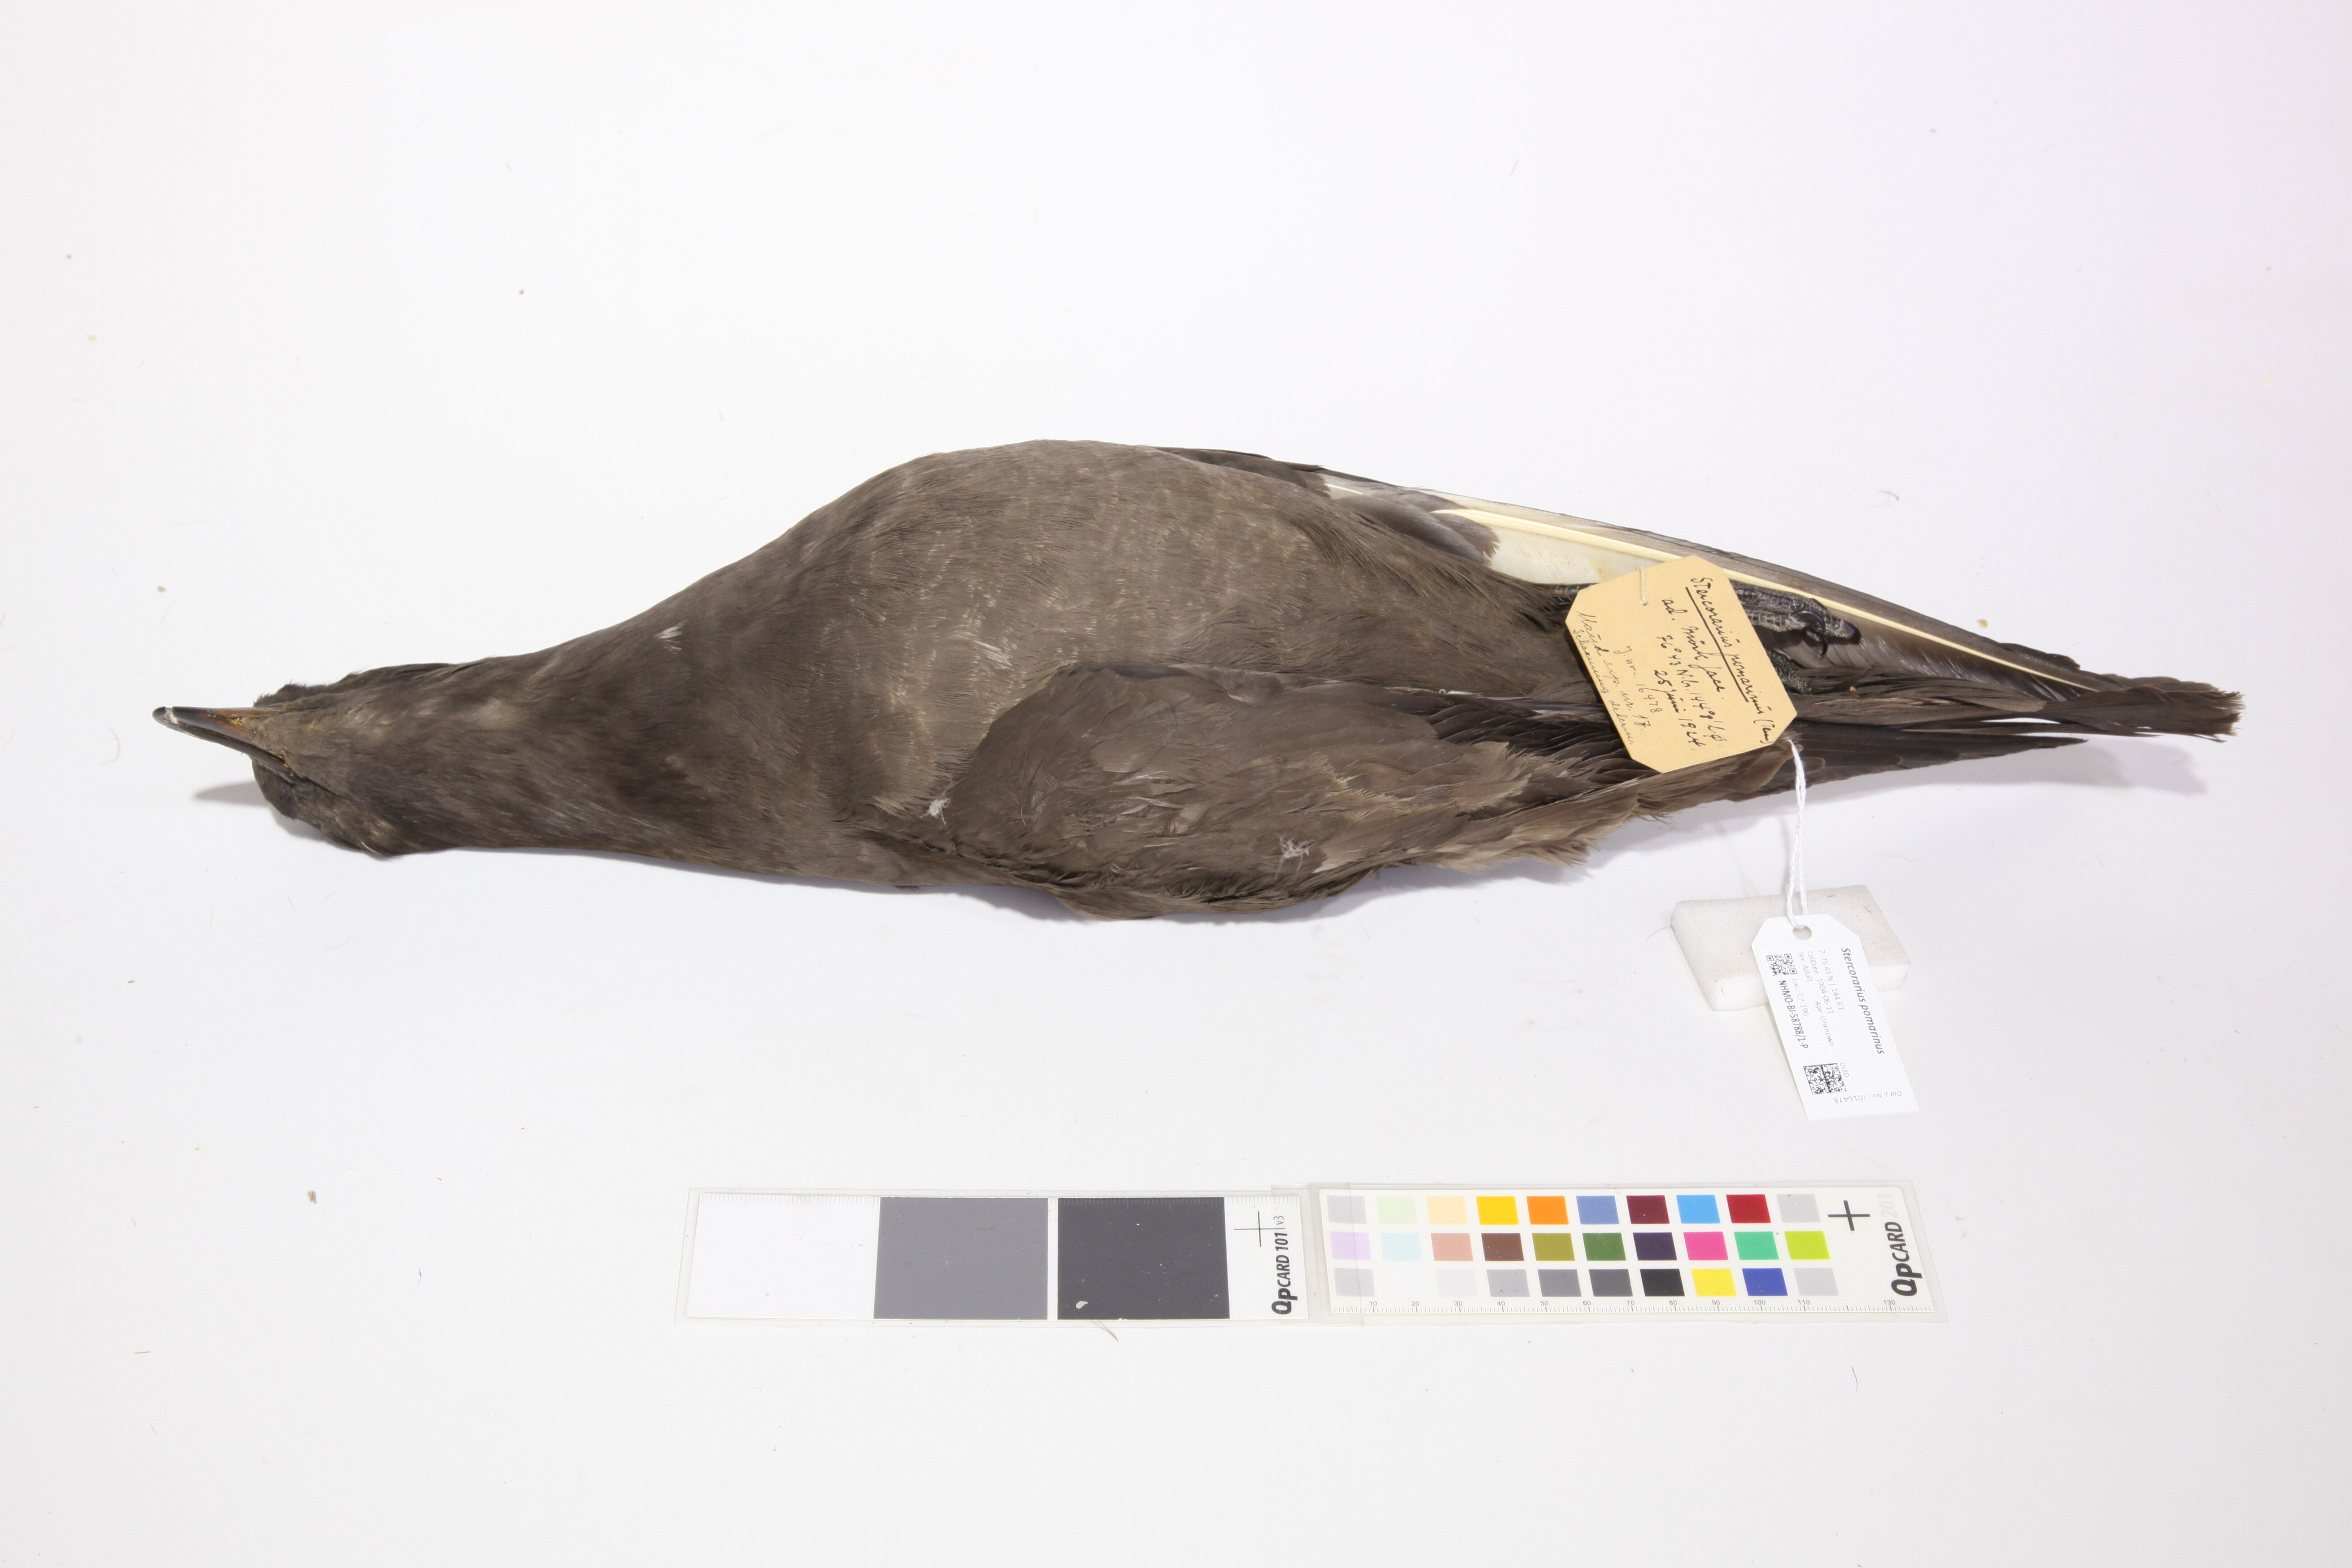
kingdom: Animalia
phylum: Chordata
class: Aves
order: Charadriiformes
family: Stercorariidae
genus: Stercorarius
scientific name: Stercorarius pomarinus
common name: Pomarine jaeger
